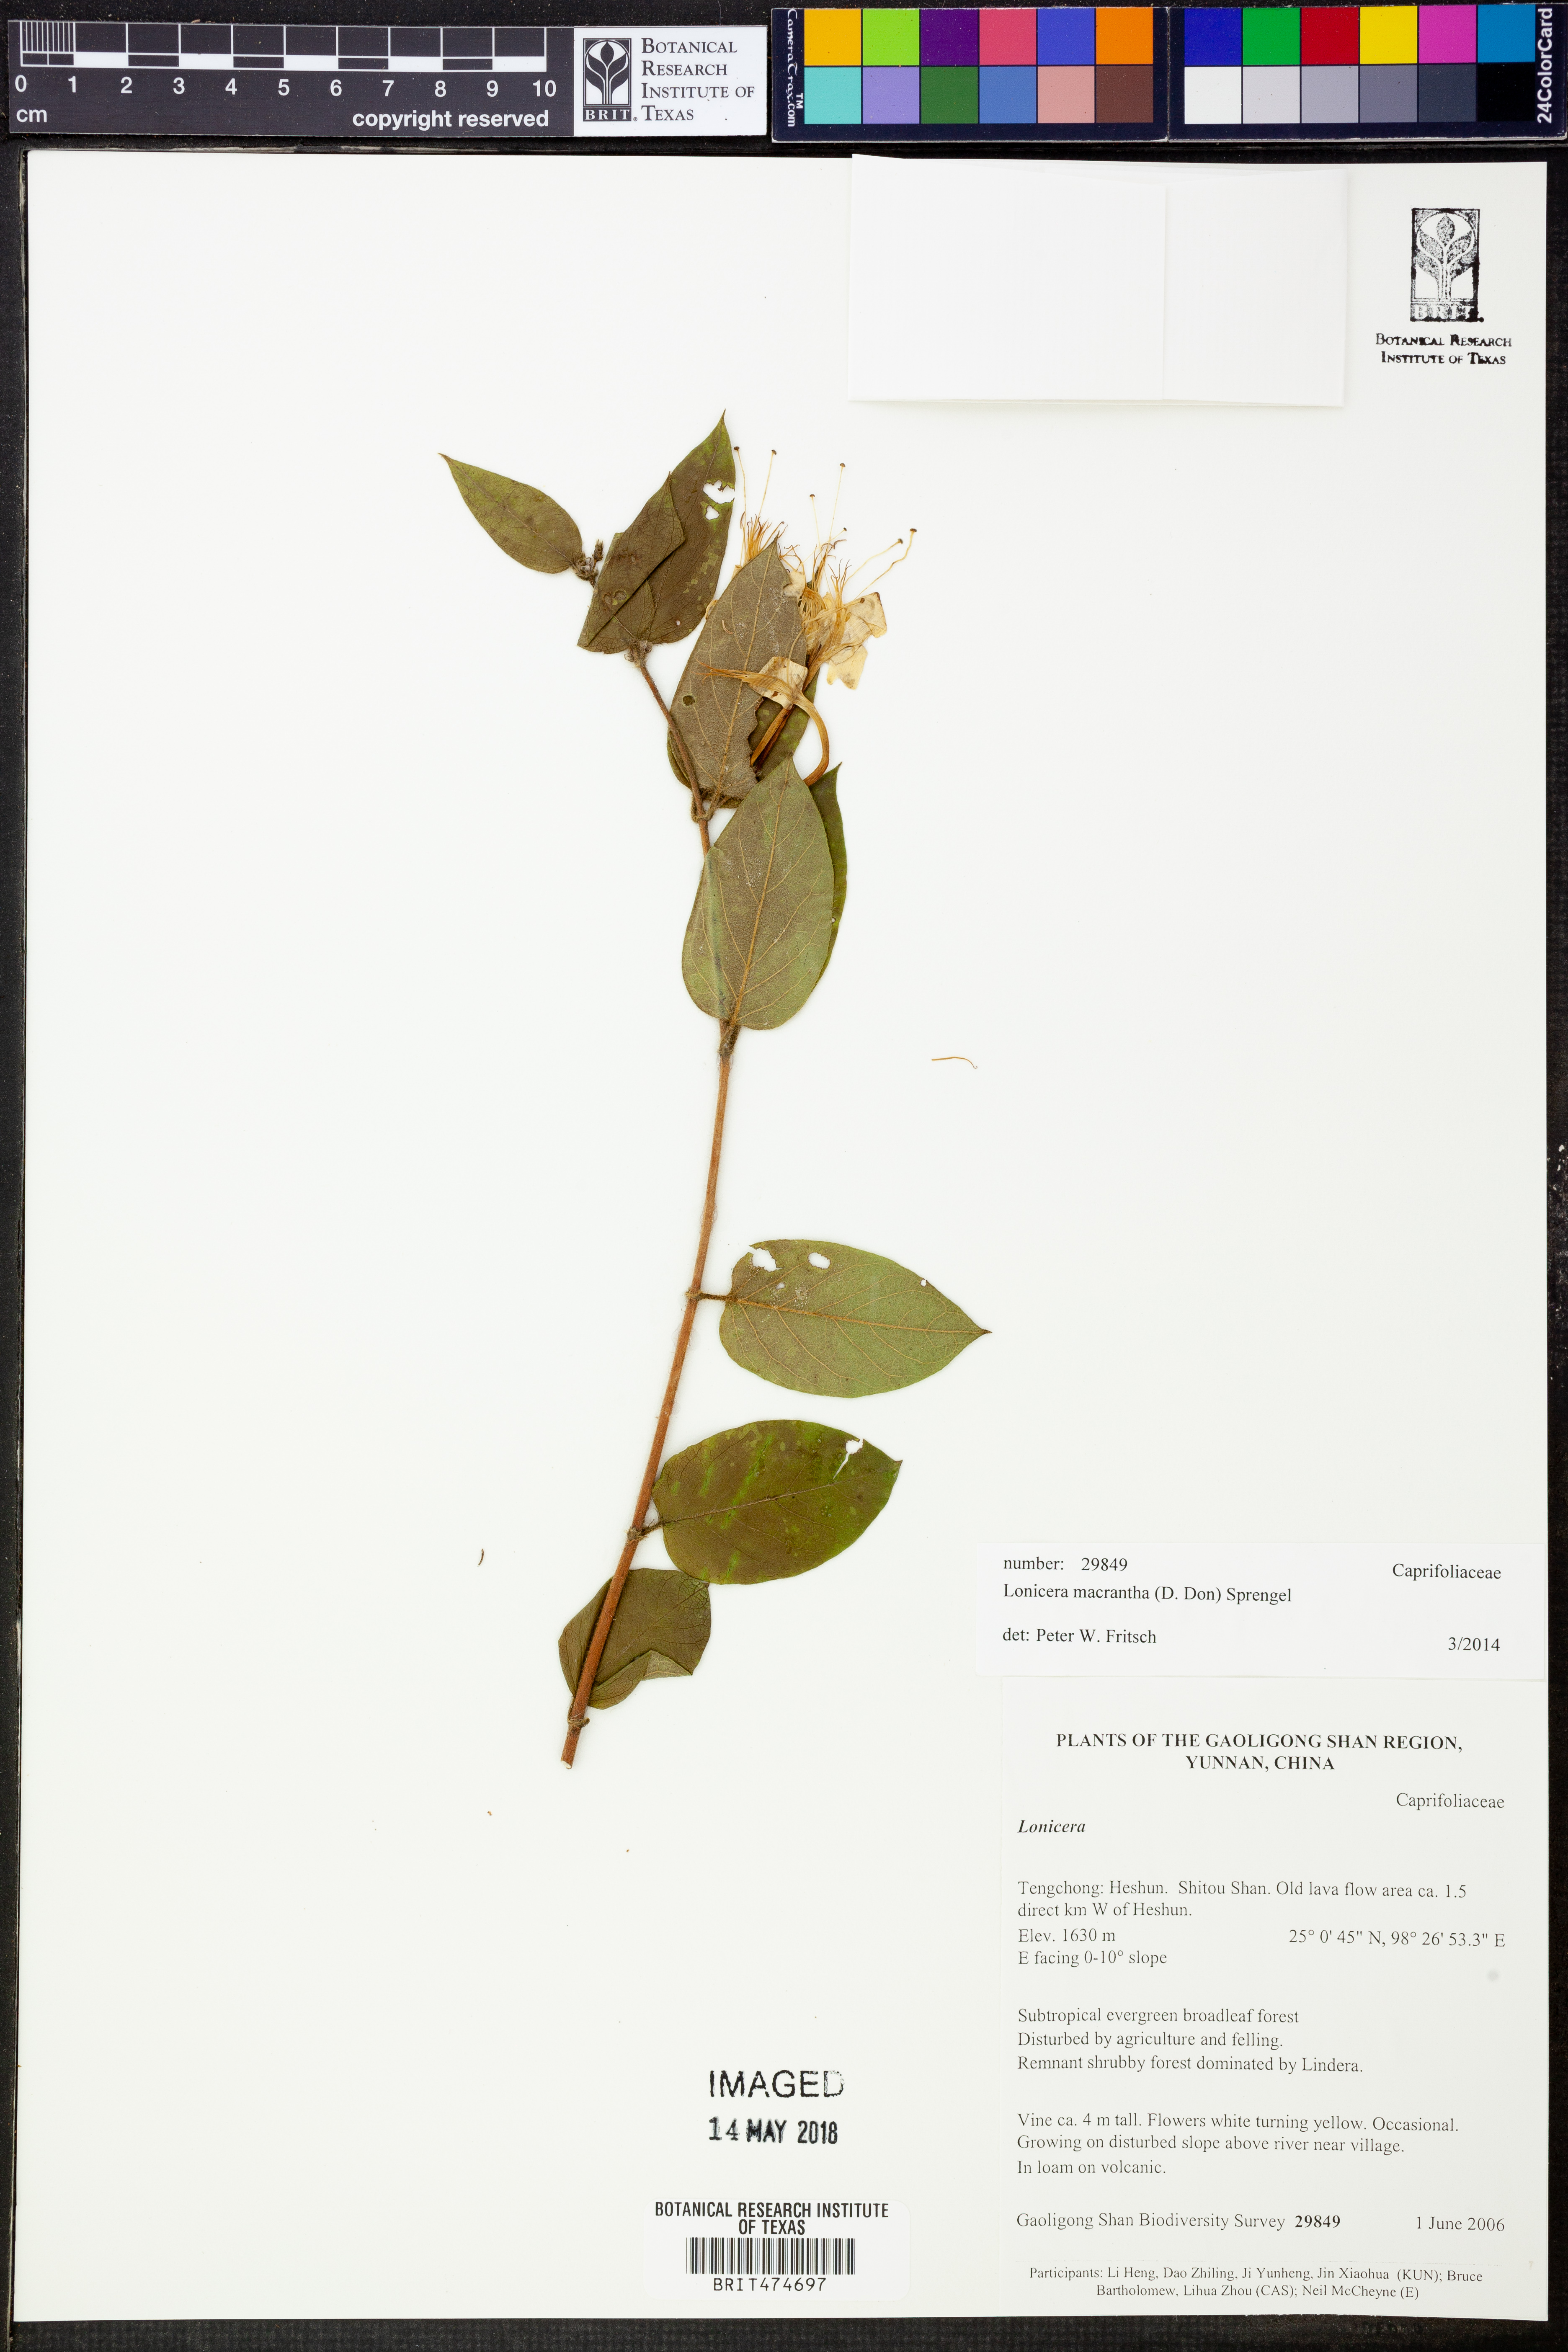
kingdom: Plantae
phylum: Tracheophyta
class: Magnoliopsida
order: Dipsacales
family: Caprifoliaceae
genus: Lonicera
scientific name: Lonicera macrantha
